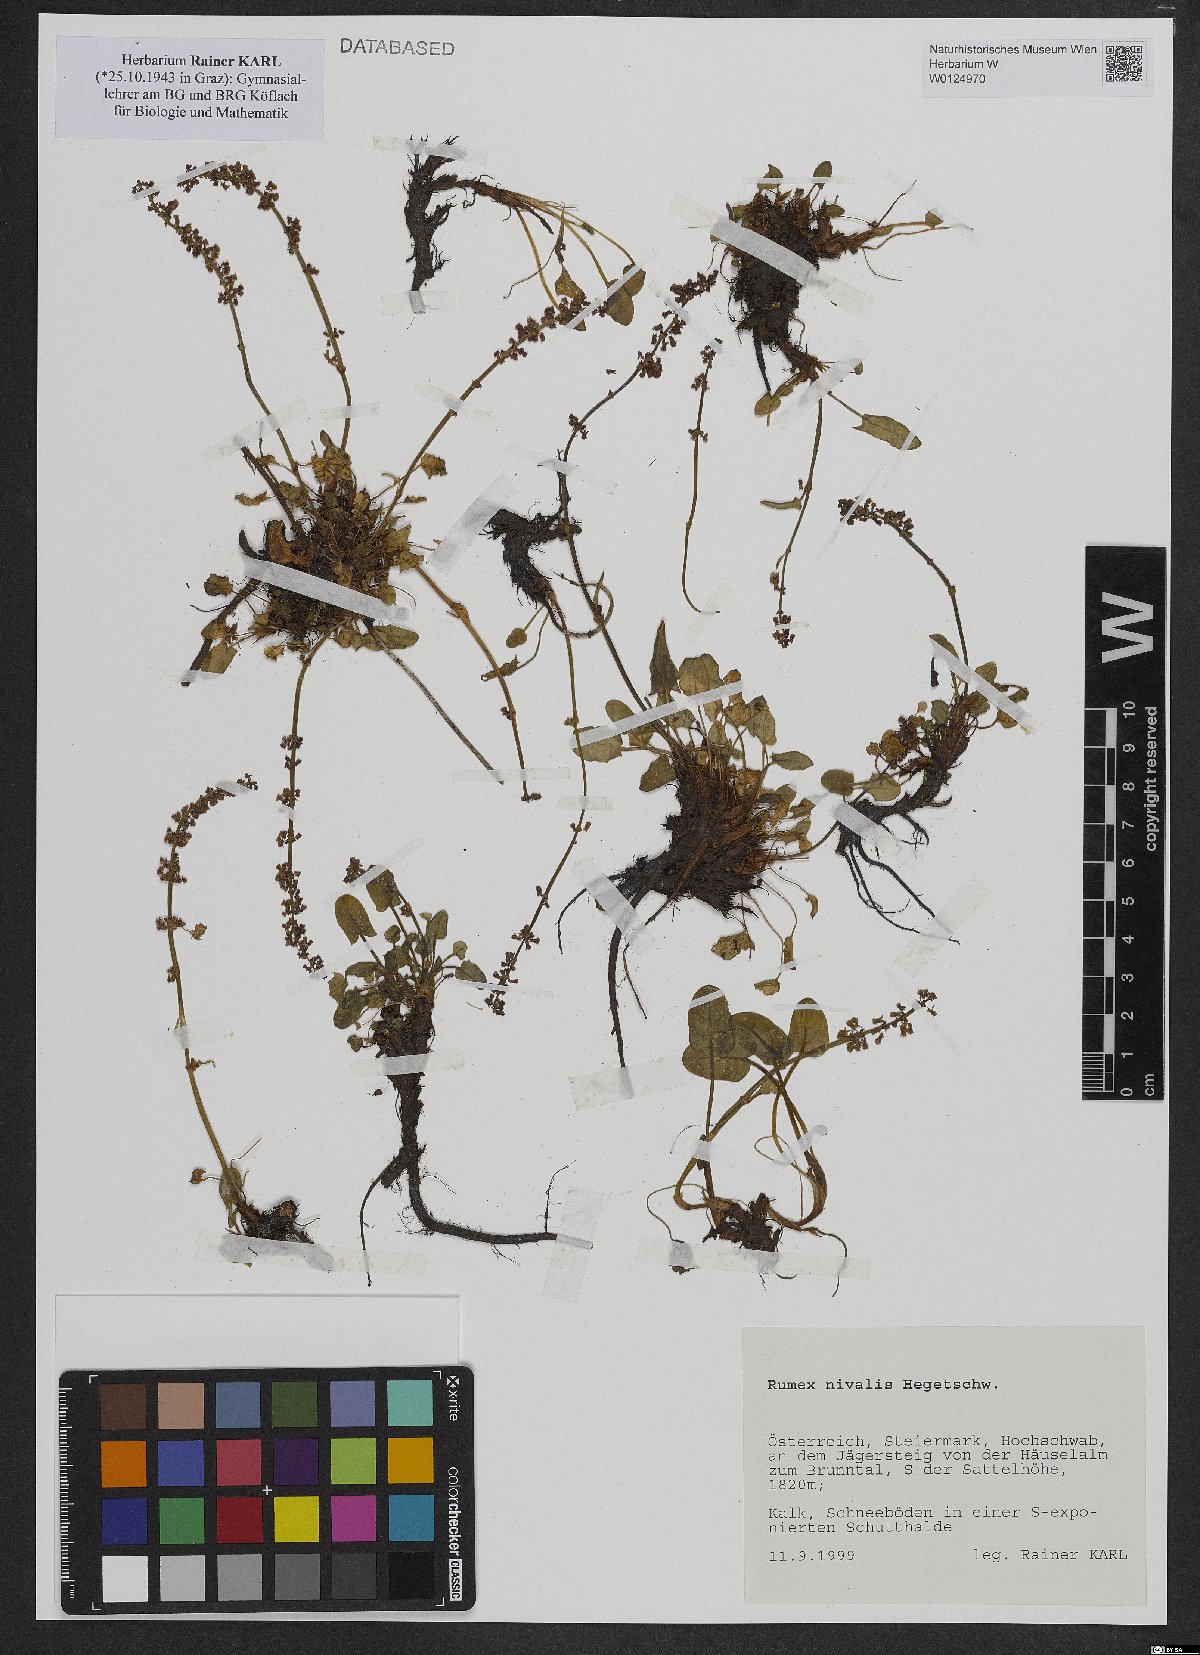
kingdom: Plantae
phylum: Tracheophyta
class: Magnoliopsida
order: Caryophyllales
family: Polygonaceae
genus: Rumex
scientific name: Rumex nivalis
